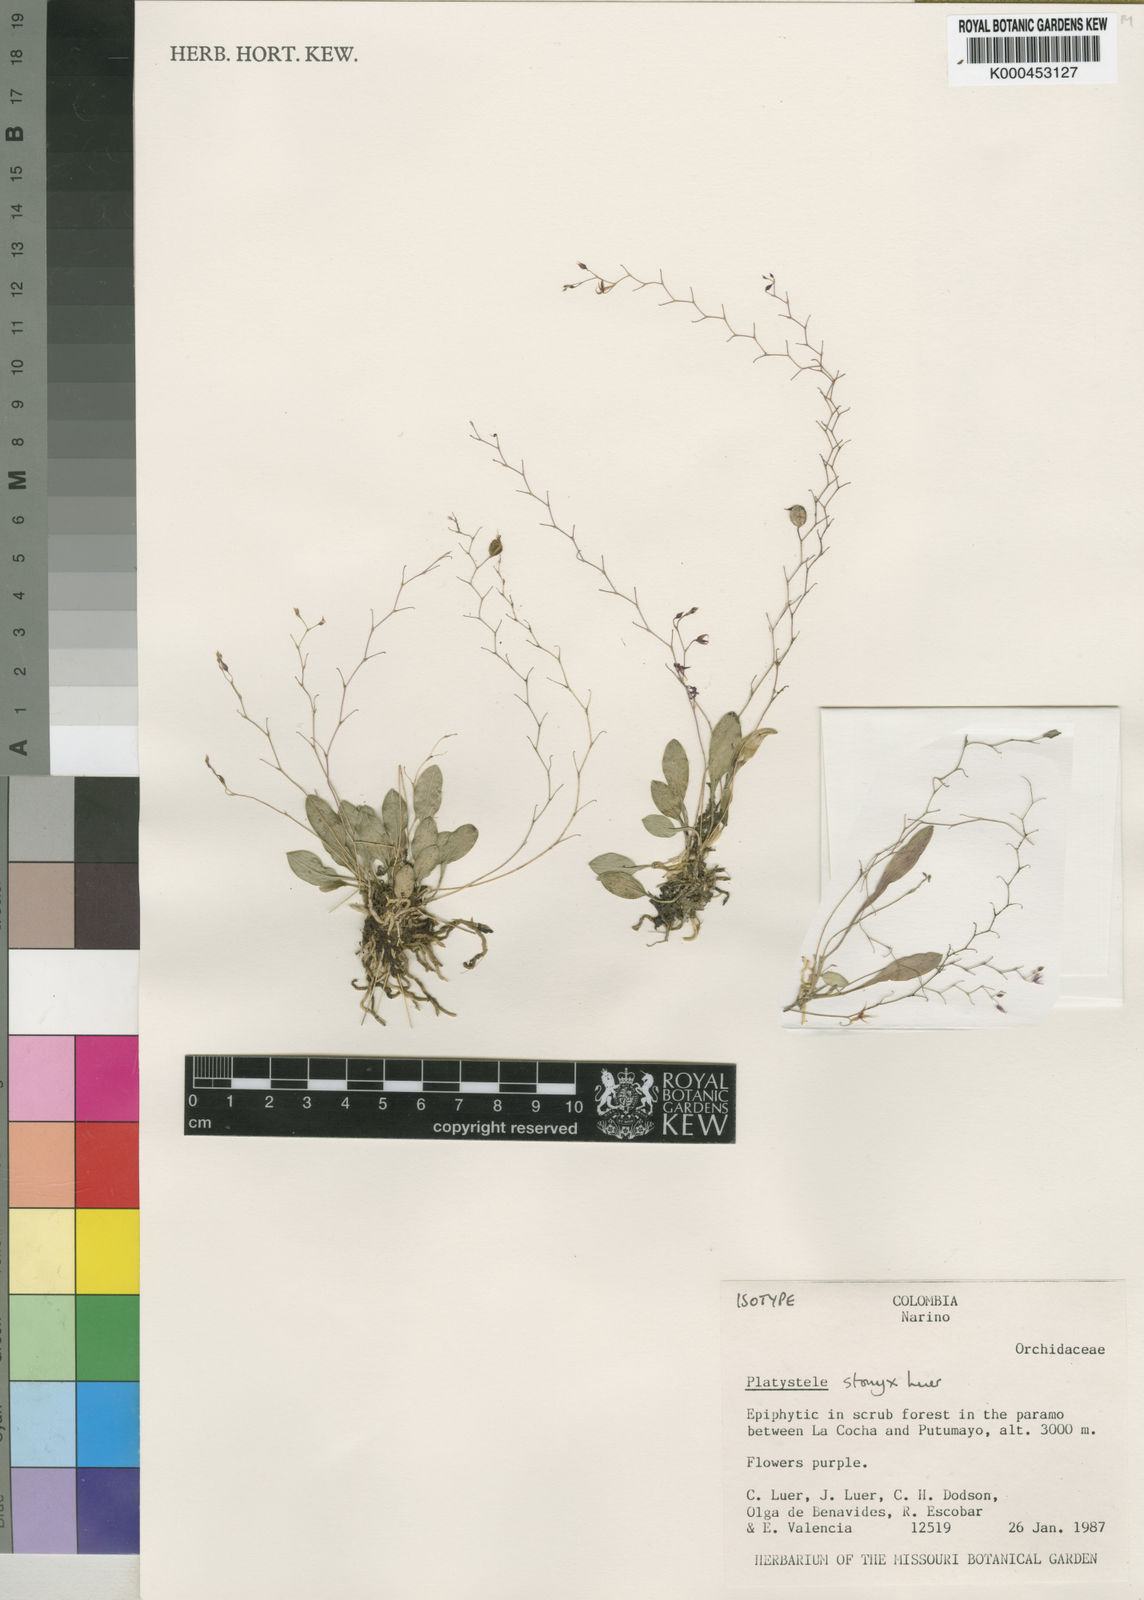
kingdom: Plantae
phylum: Tracheophyta
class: Liliopsida
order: Asparagales
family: Orchidaceae
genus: Platystele
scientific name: Platystele stonyx
